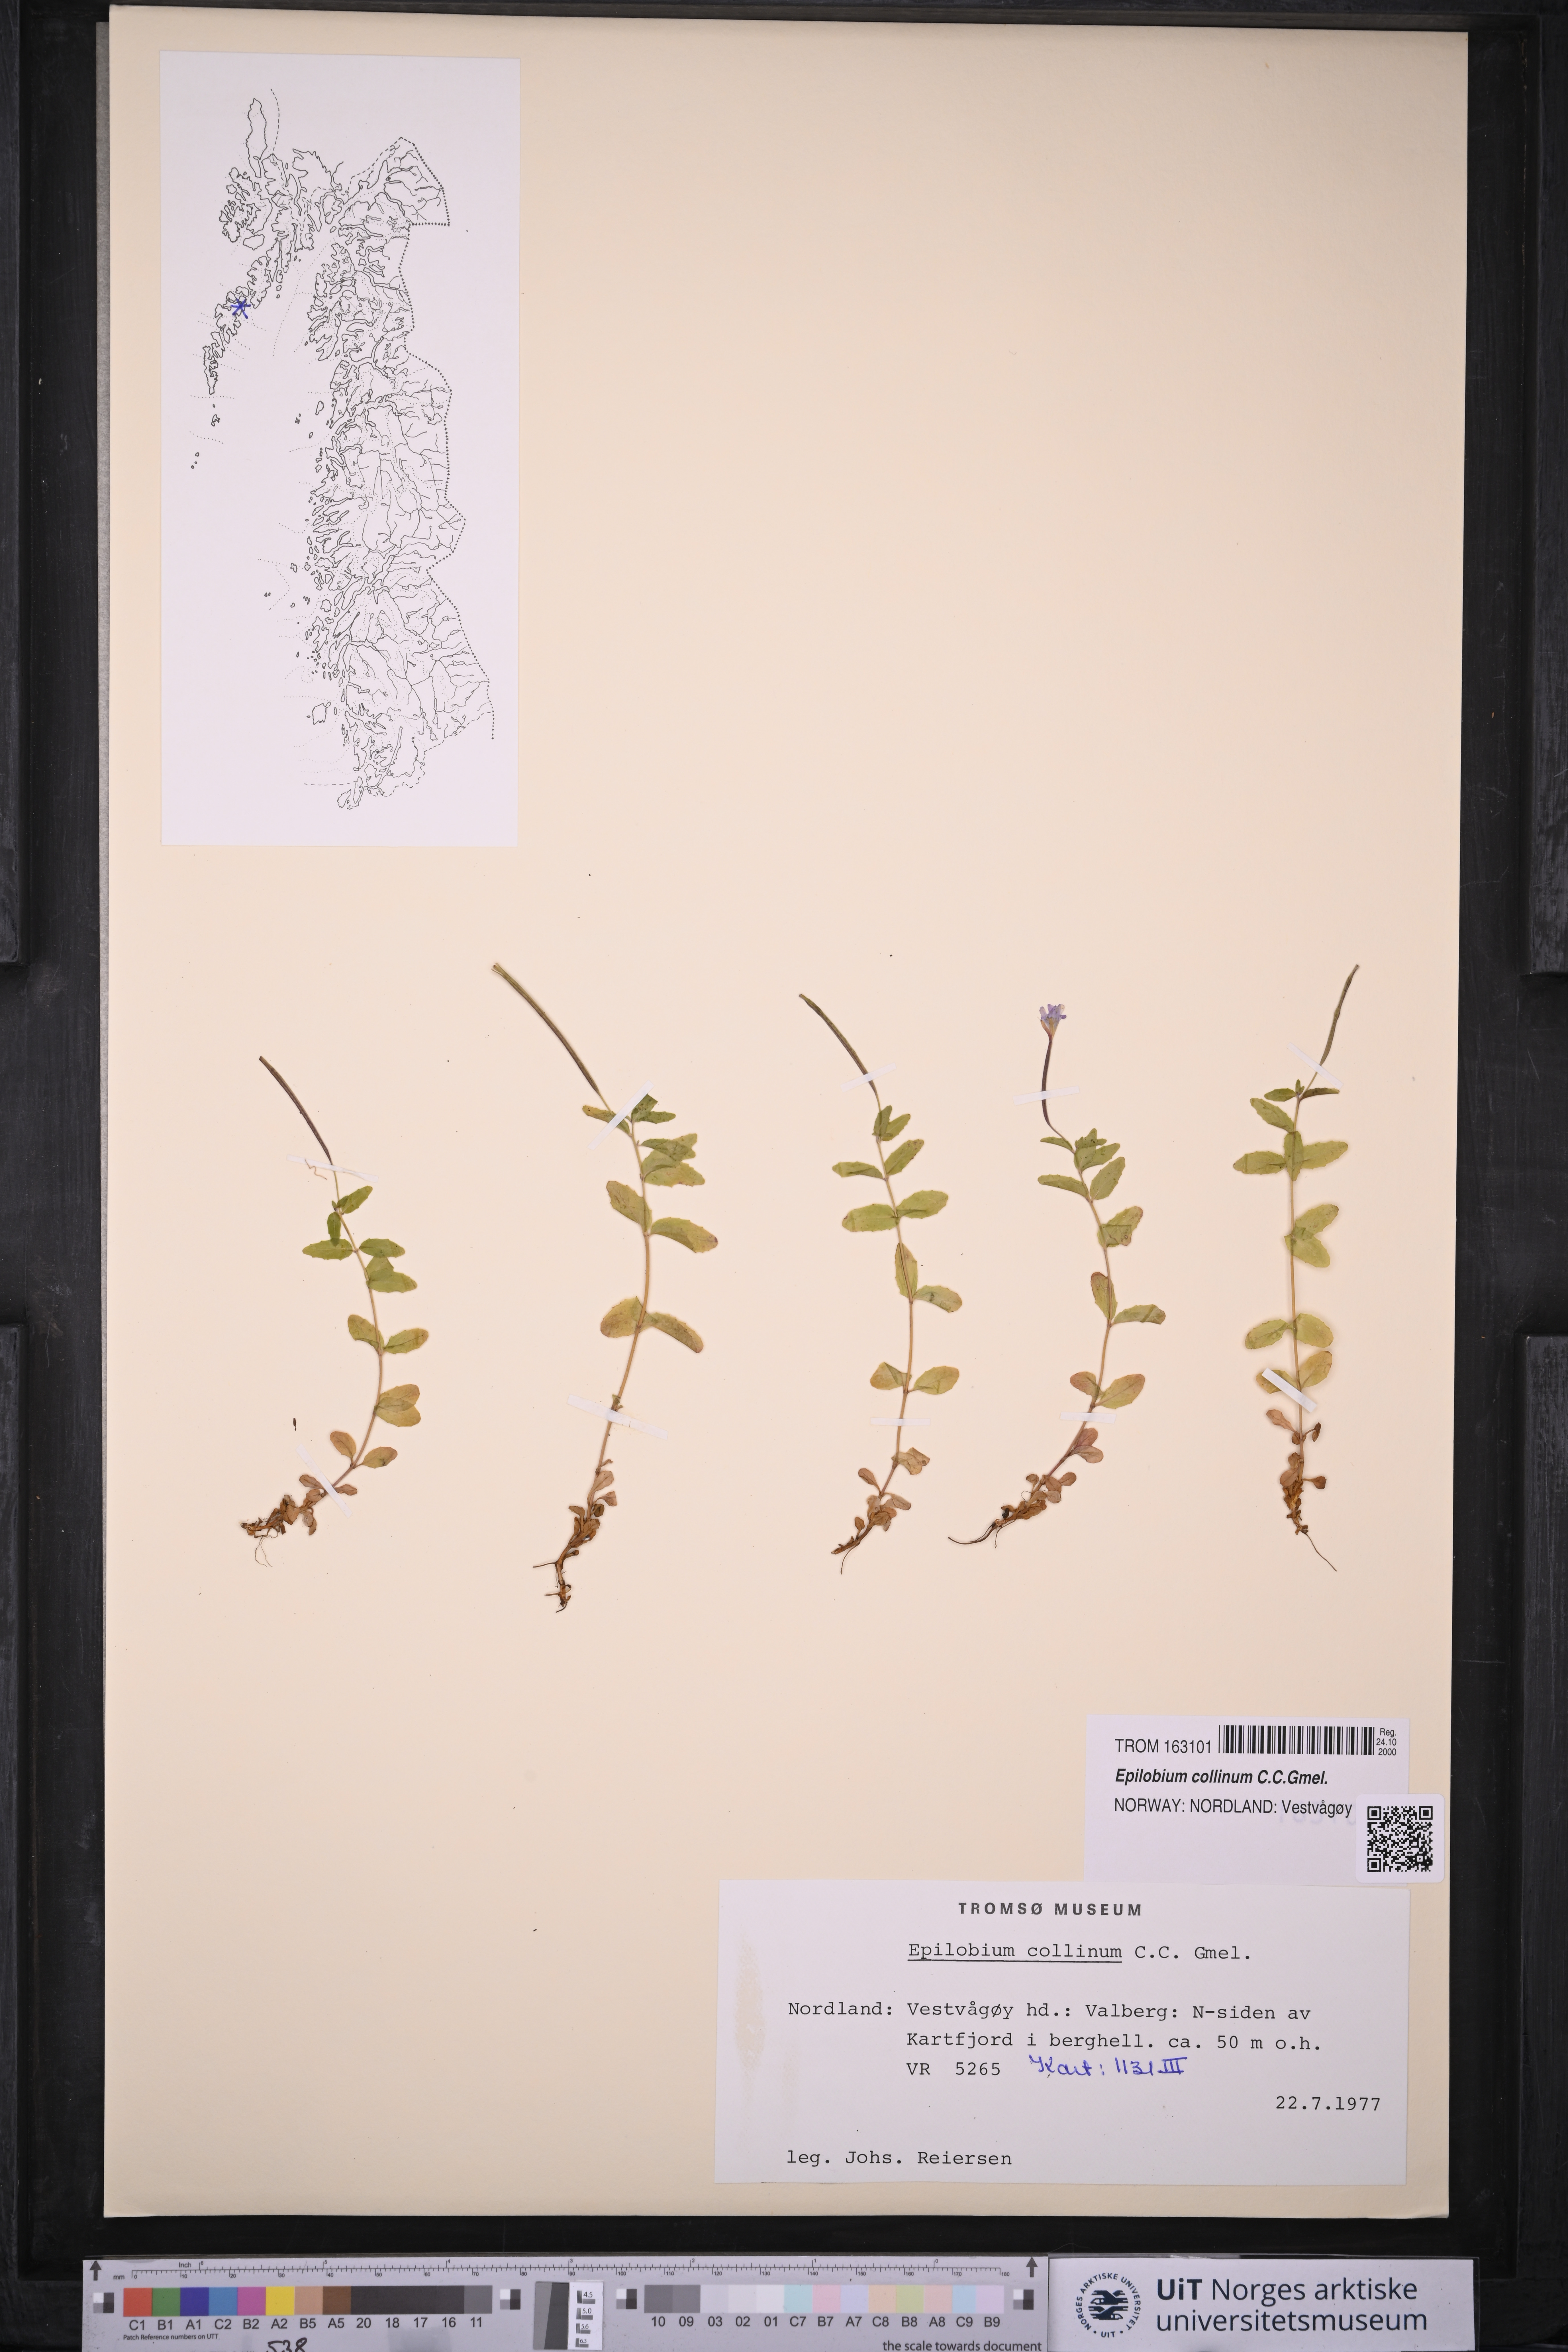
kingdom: Plantae
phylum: Tracheophyta
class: Magnoliopsida
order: Myrtales
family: Onagraceae
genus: Epilobium
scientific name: Epilobium collinum
